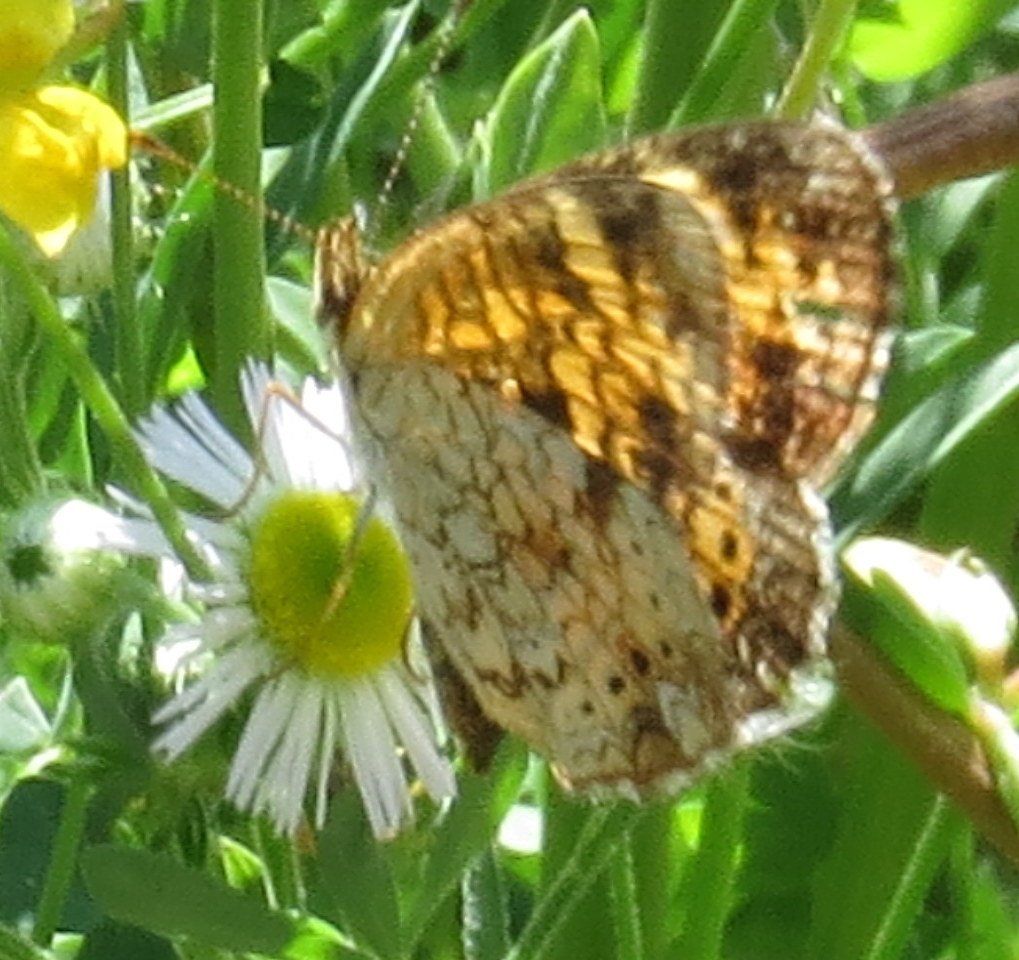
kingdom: Animalia
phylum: Arthropoda
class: Insecta
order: Lepidoptera
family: Nymphalidae
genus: Phyciodes
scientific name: Phyciodes
